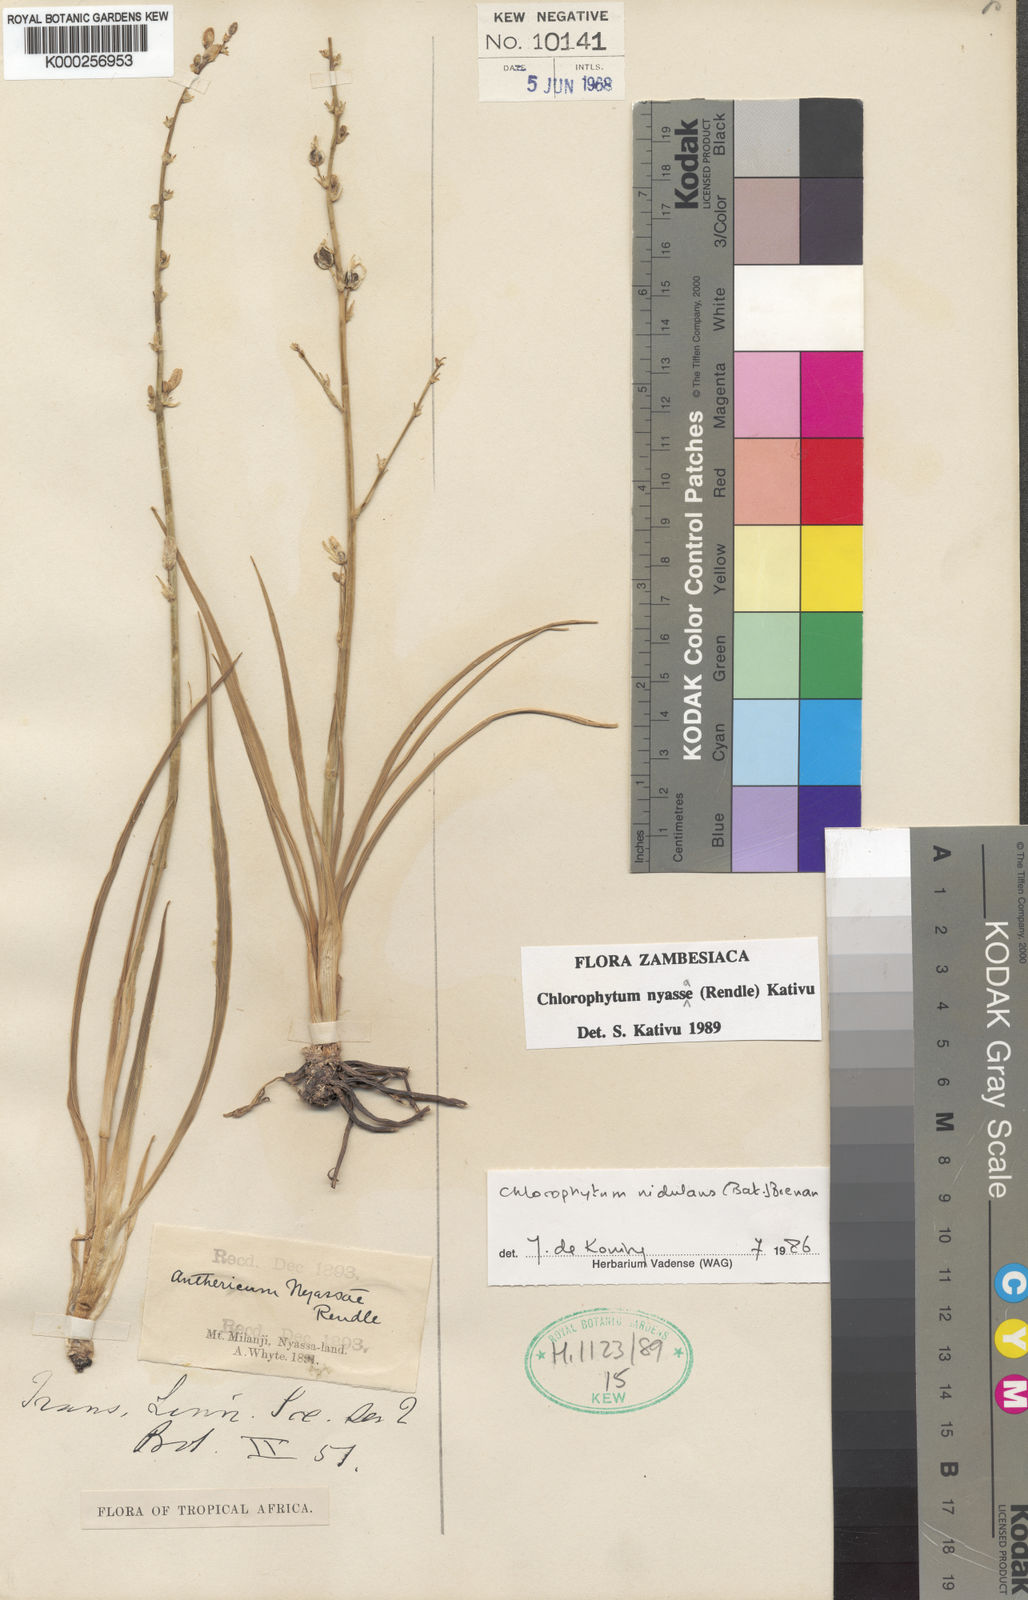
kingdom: Plantae
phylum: Tracheophyta
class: Liliopsida
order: Asparagales
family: Asparagaceae
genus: Chlorophytum
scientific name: Chlorophytum nyasae
